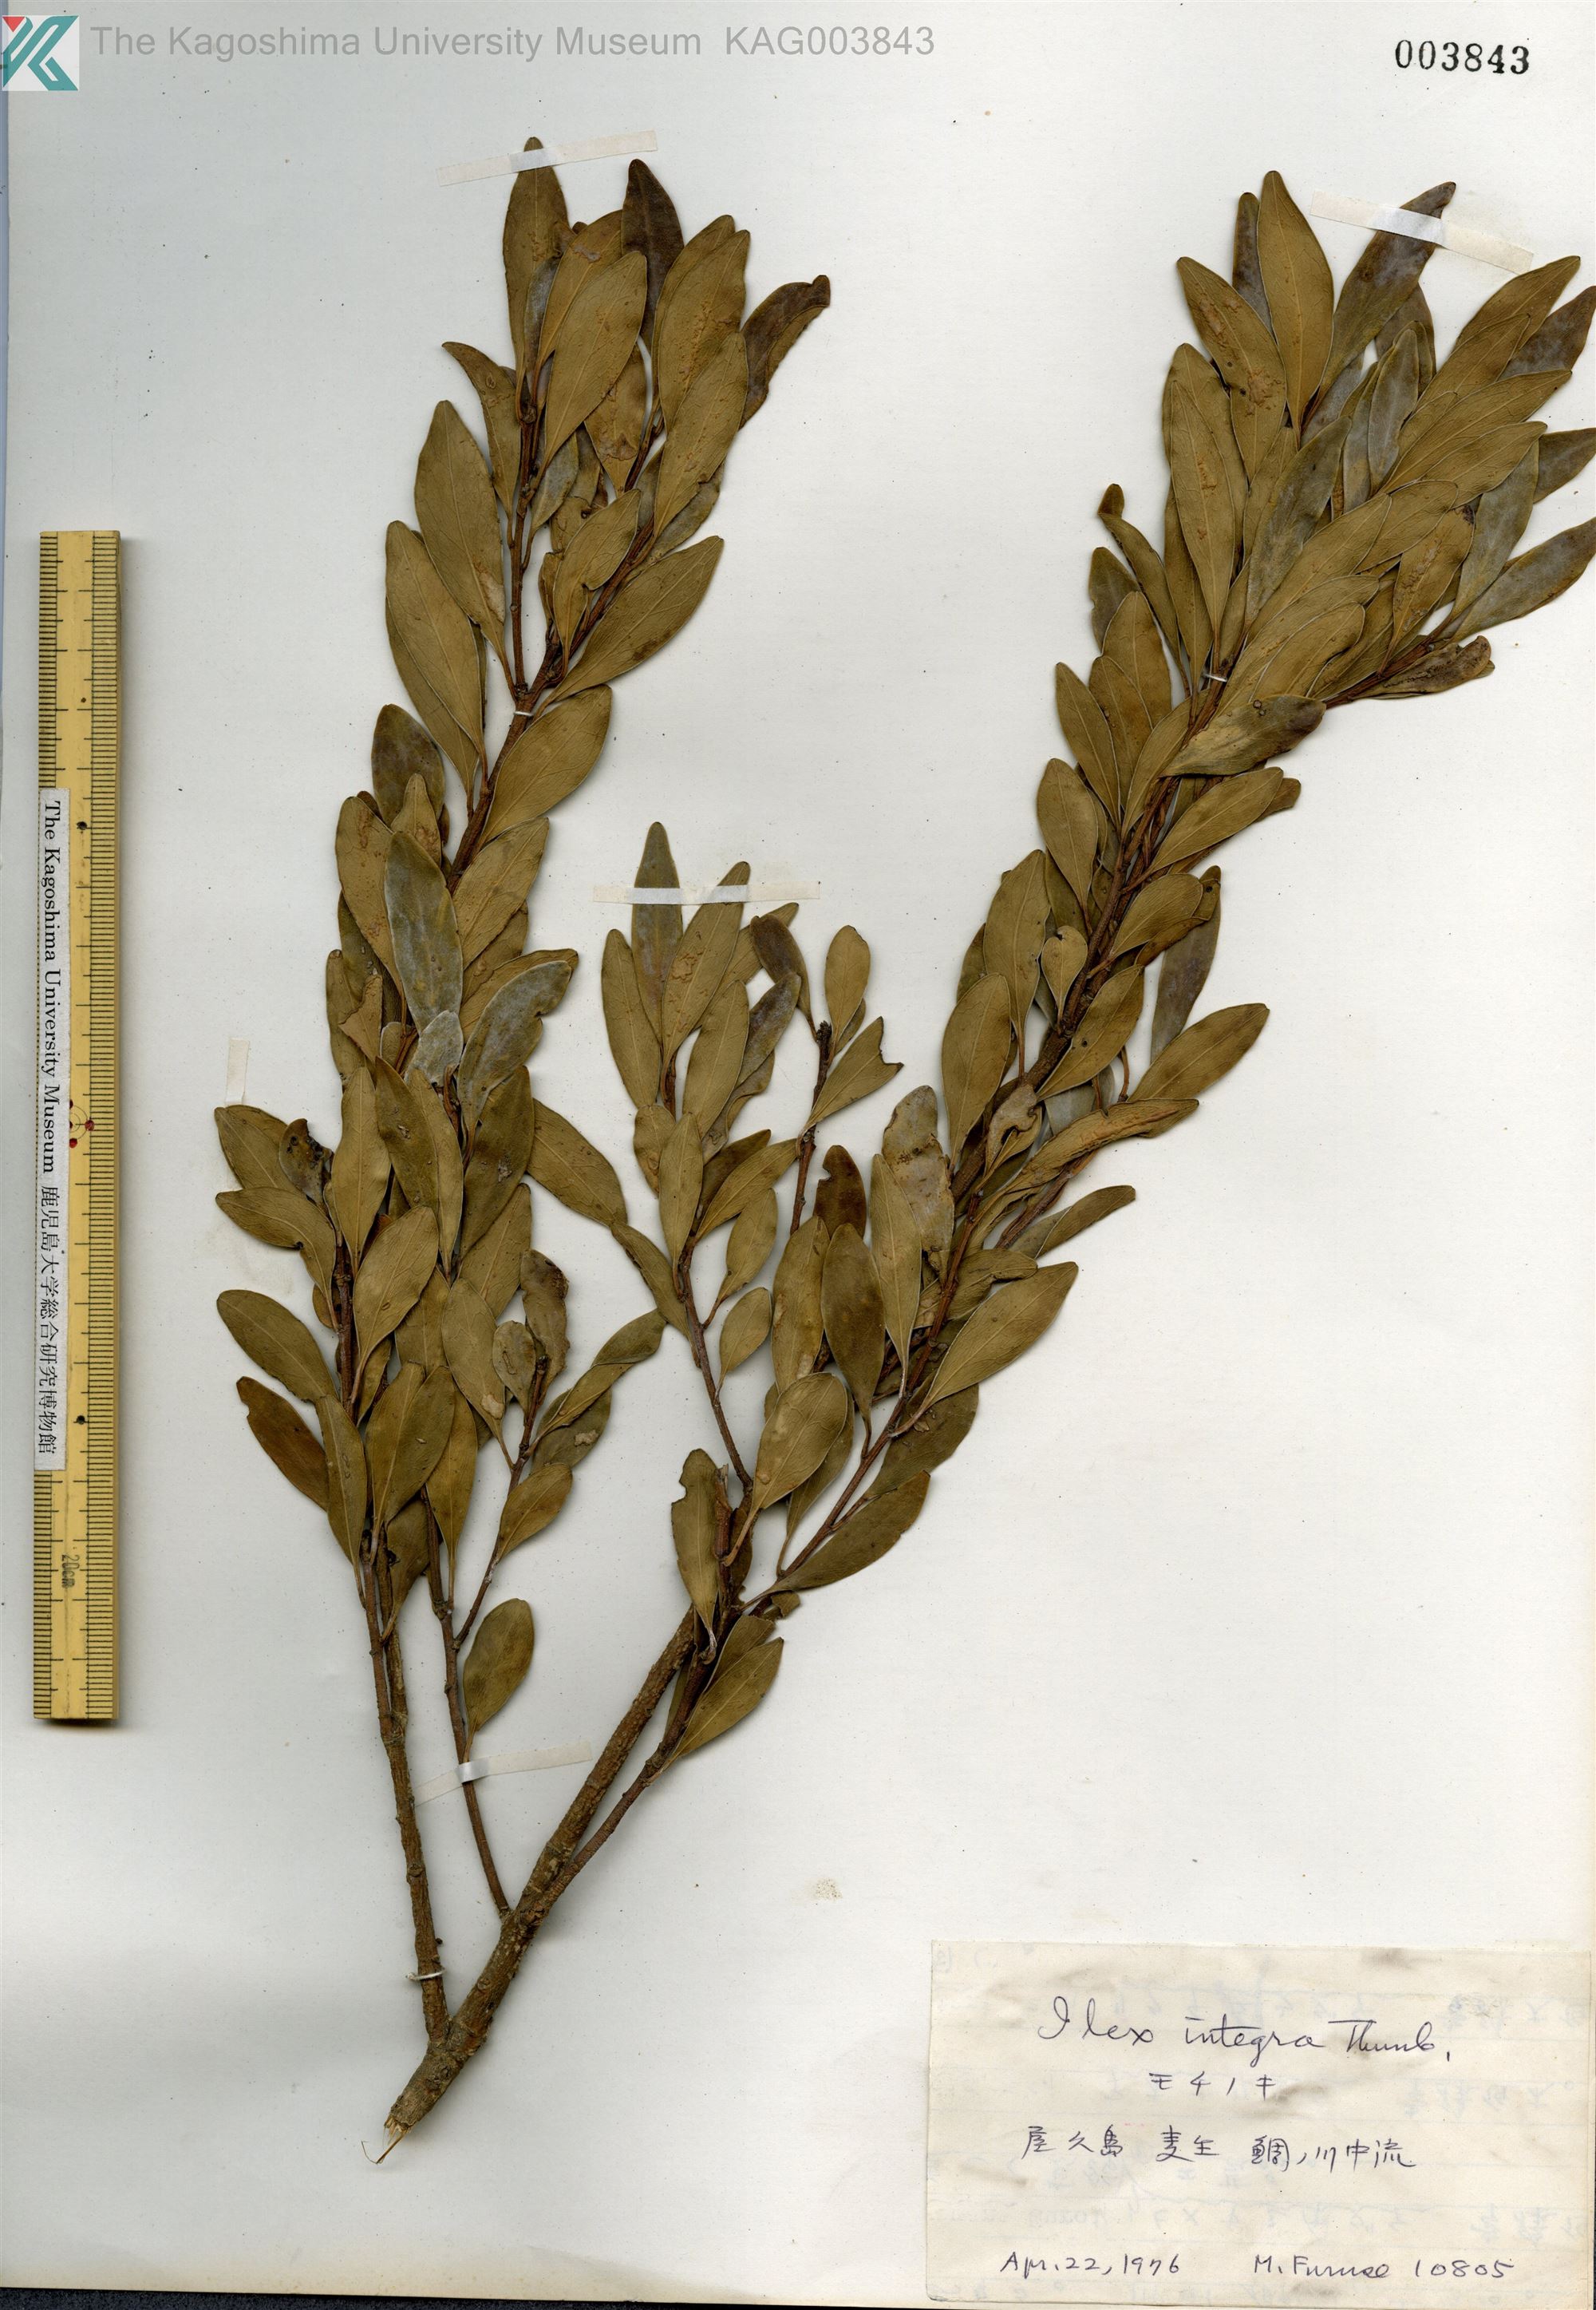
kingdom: Plantae
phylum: Tracheophyta
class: Magnoliopsida
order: Aquifoliales
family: Aquifoliaceae
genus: Ilex
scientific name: Ilex integra
